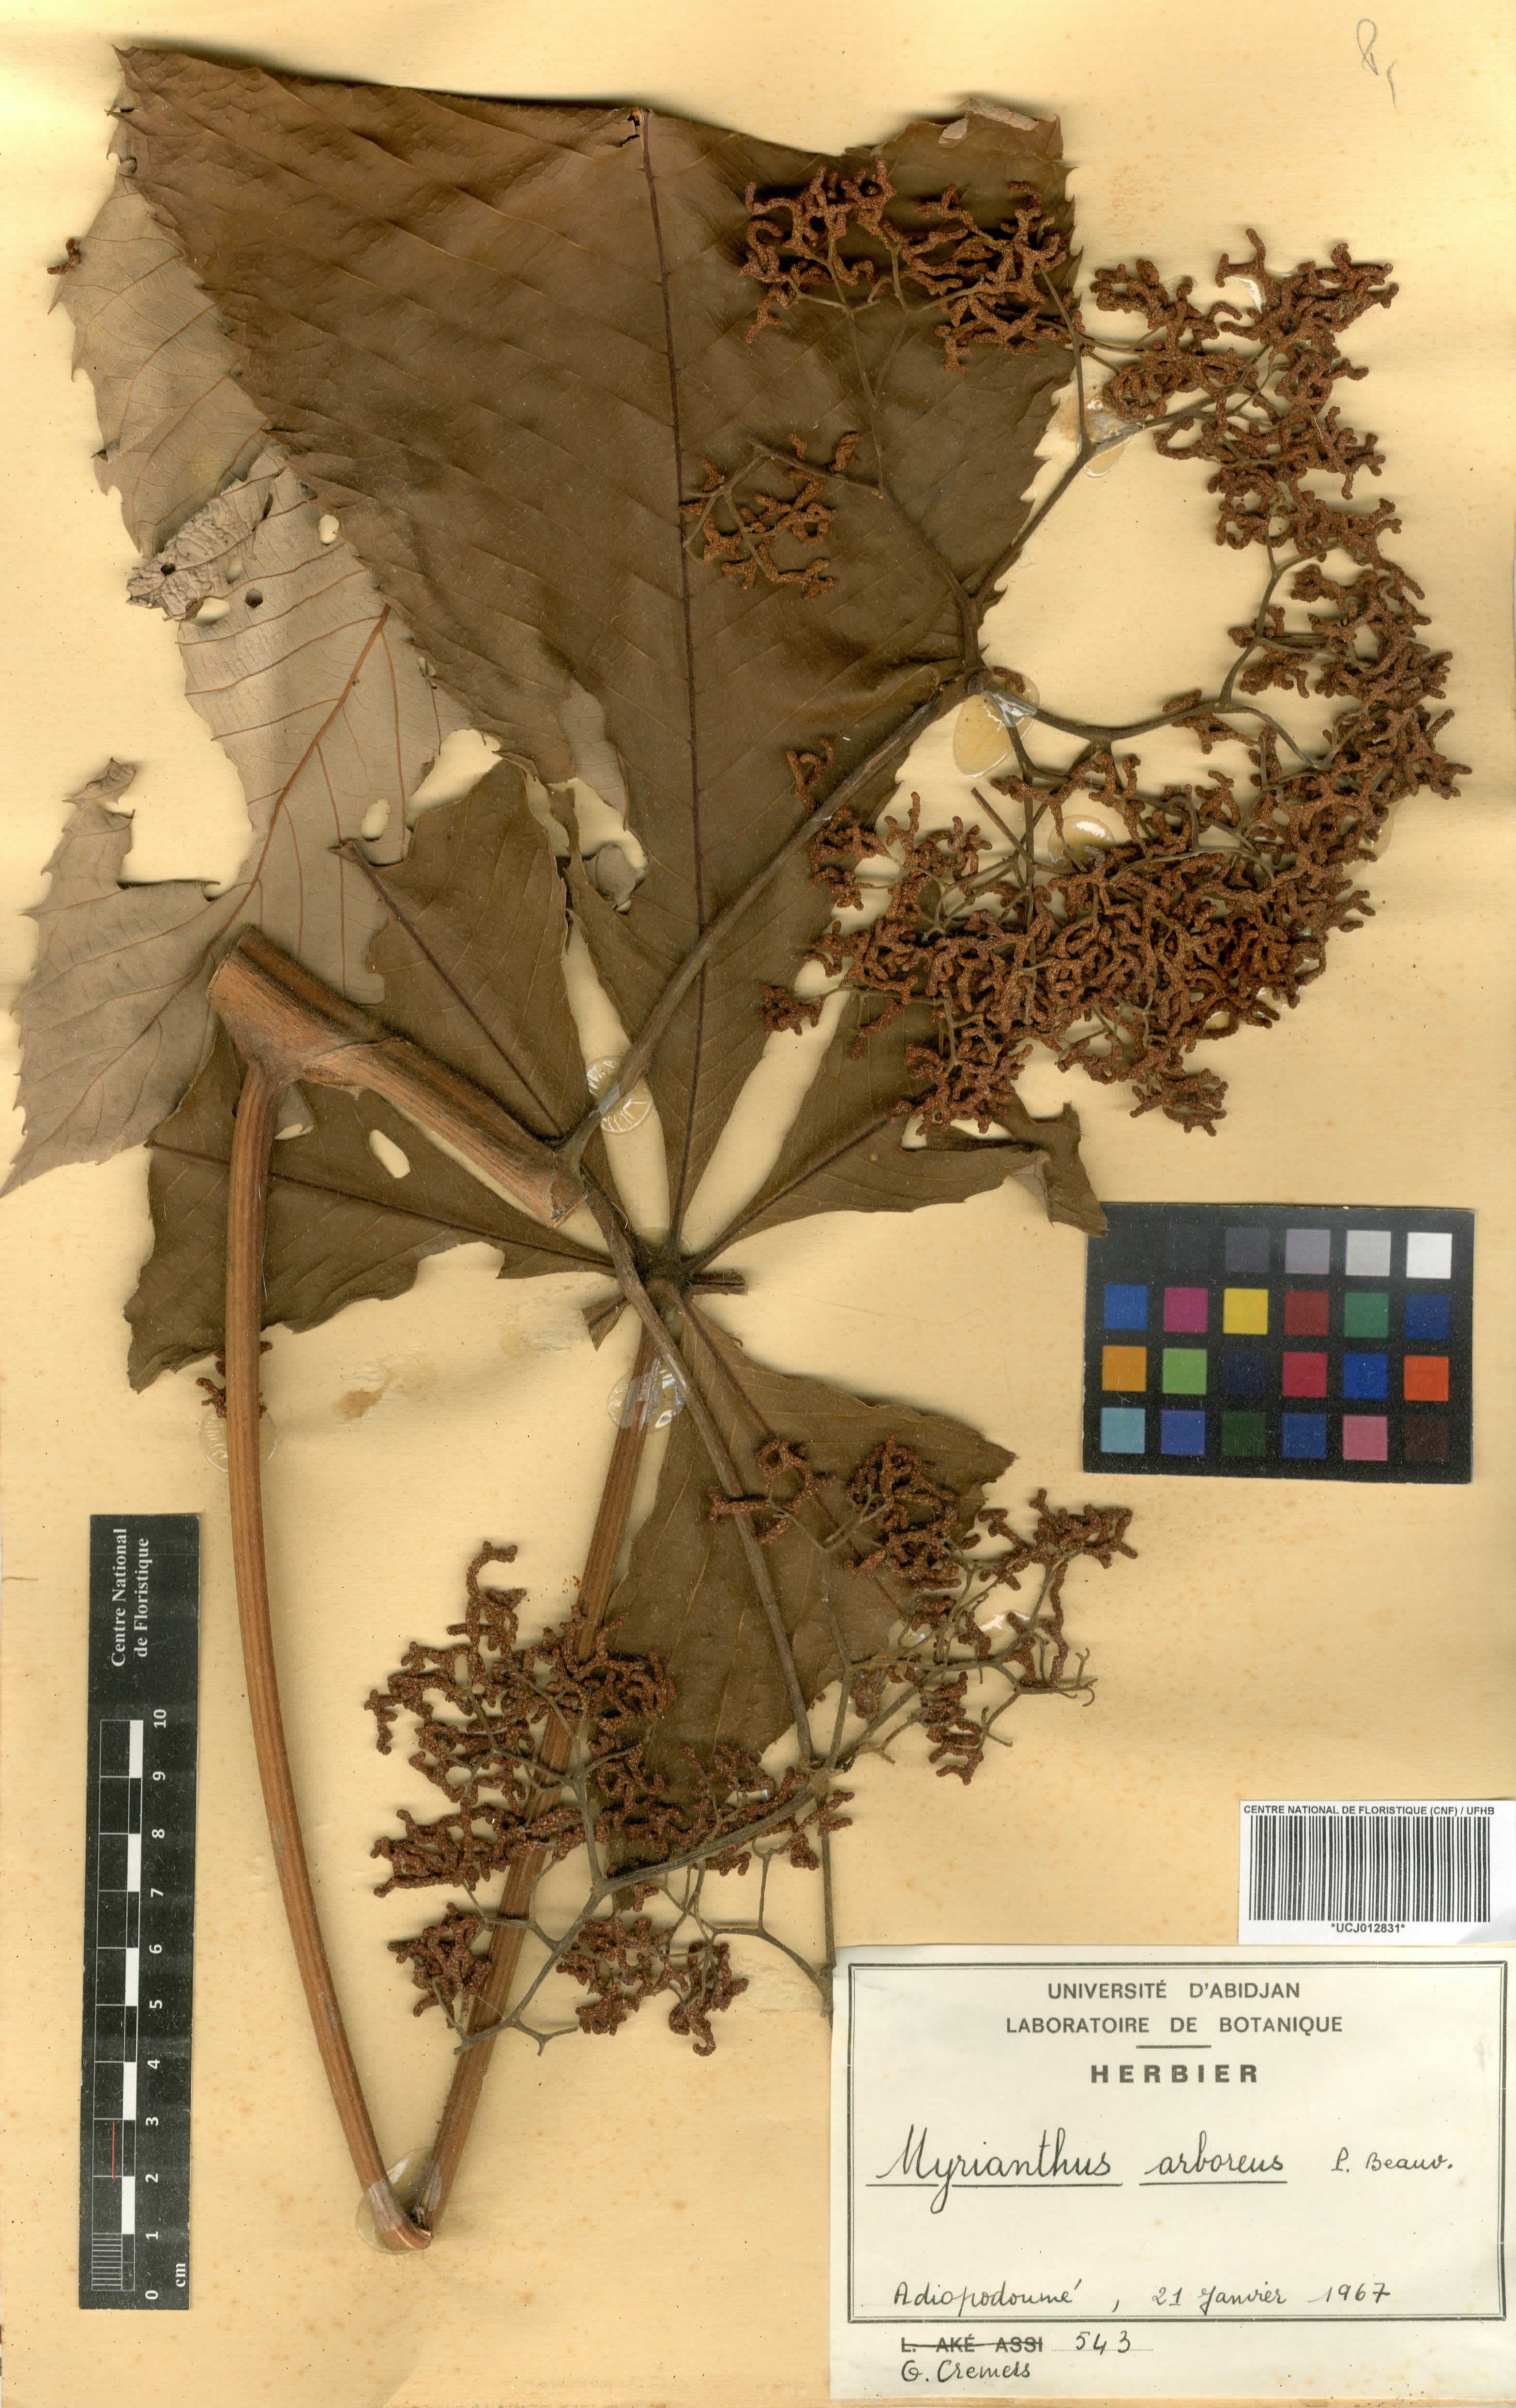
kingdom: Plantae
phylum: Tracheophyta
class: Magnoliopsida
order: Rosales
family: Urticaceae
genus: Myrianthus
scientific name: Myrianthus arboreus
